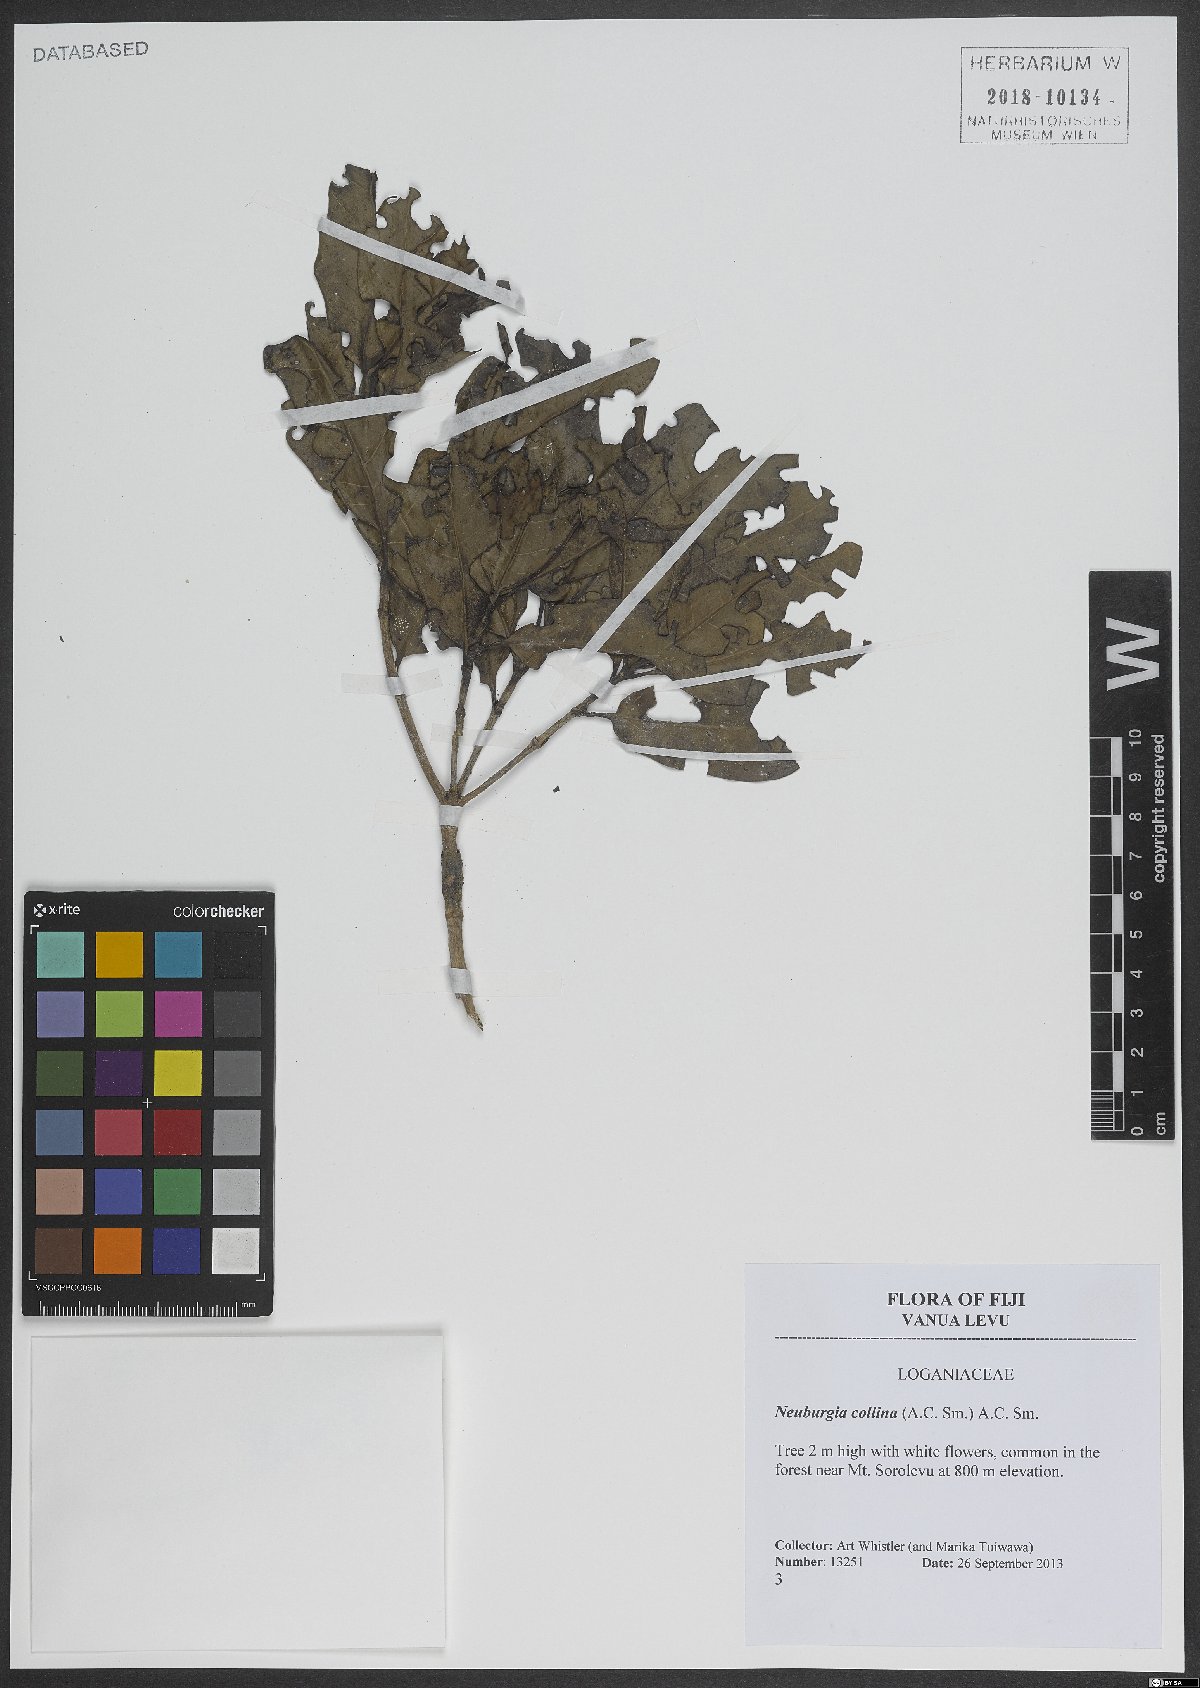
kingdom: Plantae
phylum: Tracheophyta
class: Magnoliopsida
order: Gentianales
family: Loganiaceae
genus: Neuburgia
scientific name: Neuburgia collina
